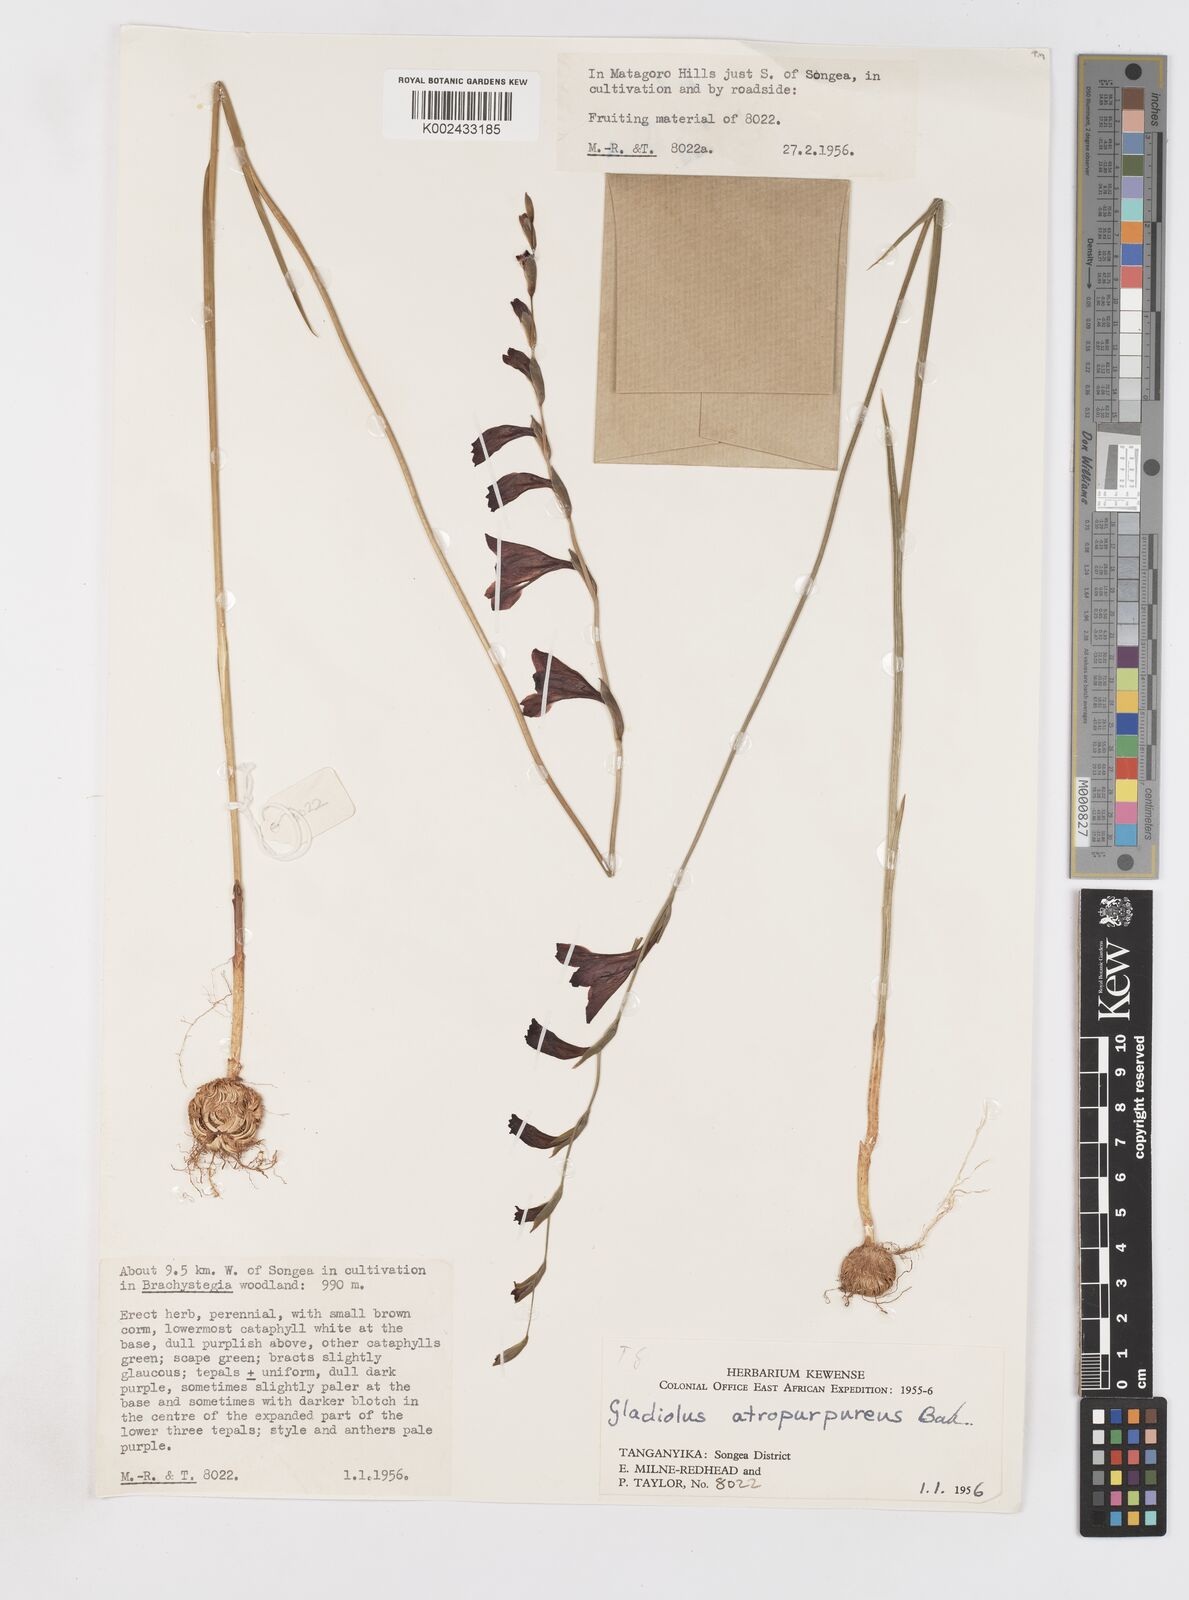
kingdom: Plantae
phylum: Tracheophyta
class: Liliopsida
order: Asparagales
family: Iridaceae
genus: Gladiolus
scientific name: Gladiolus atropurpureus
